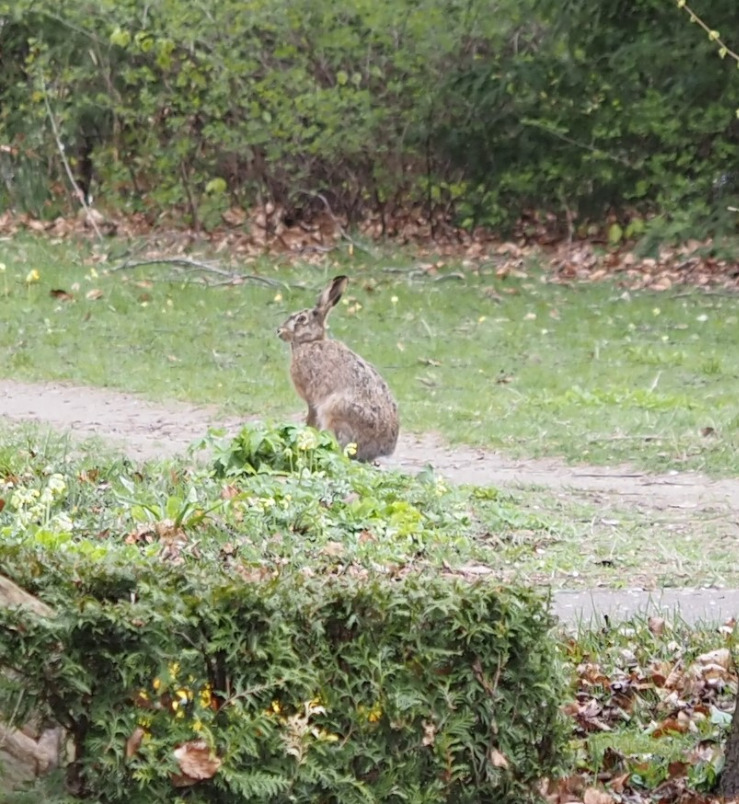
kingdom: Animalia
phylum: Chordata
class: Mammalia
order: Lagomorpha
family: Leporidae
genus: Lepus
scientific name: Lepus europaeus
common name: Hare
